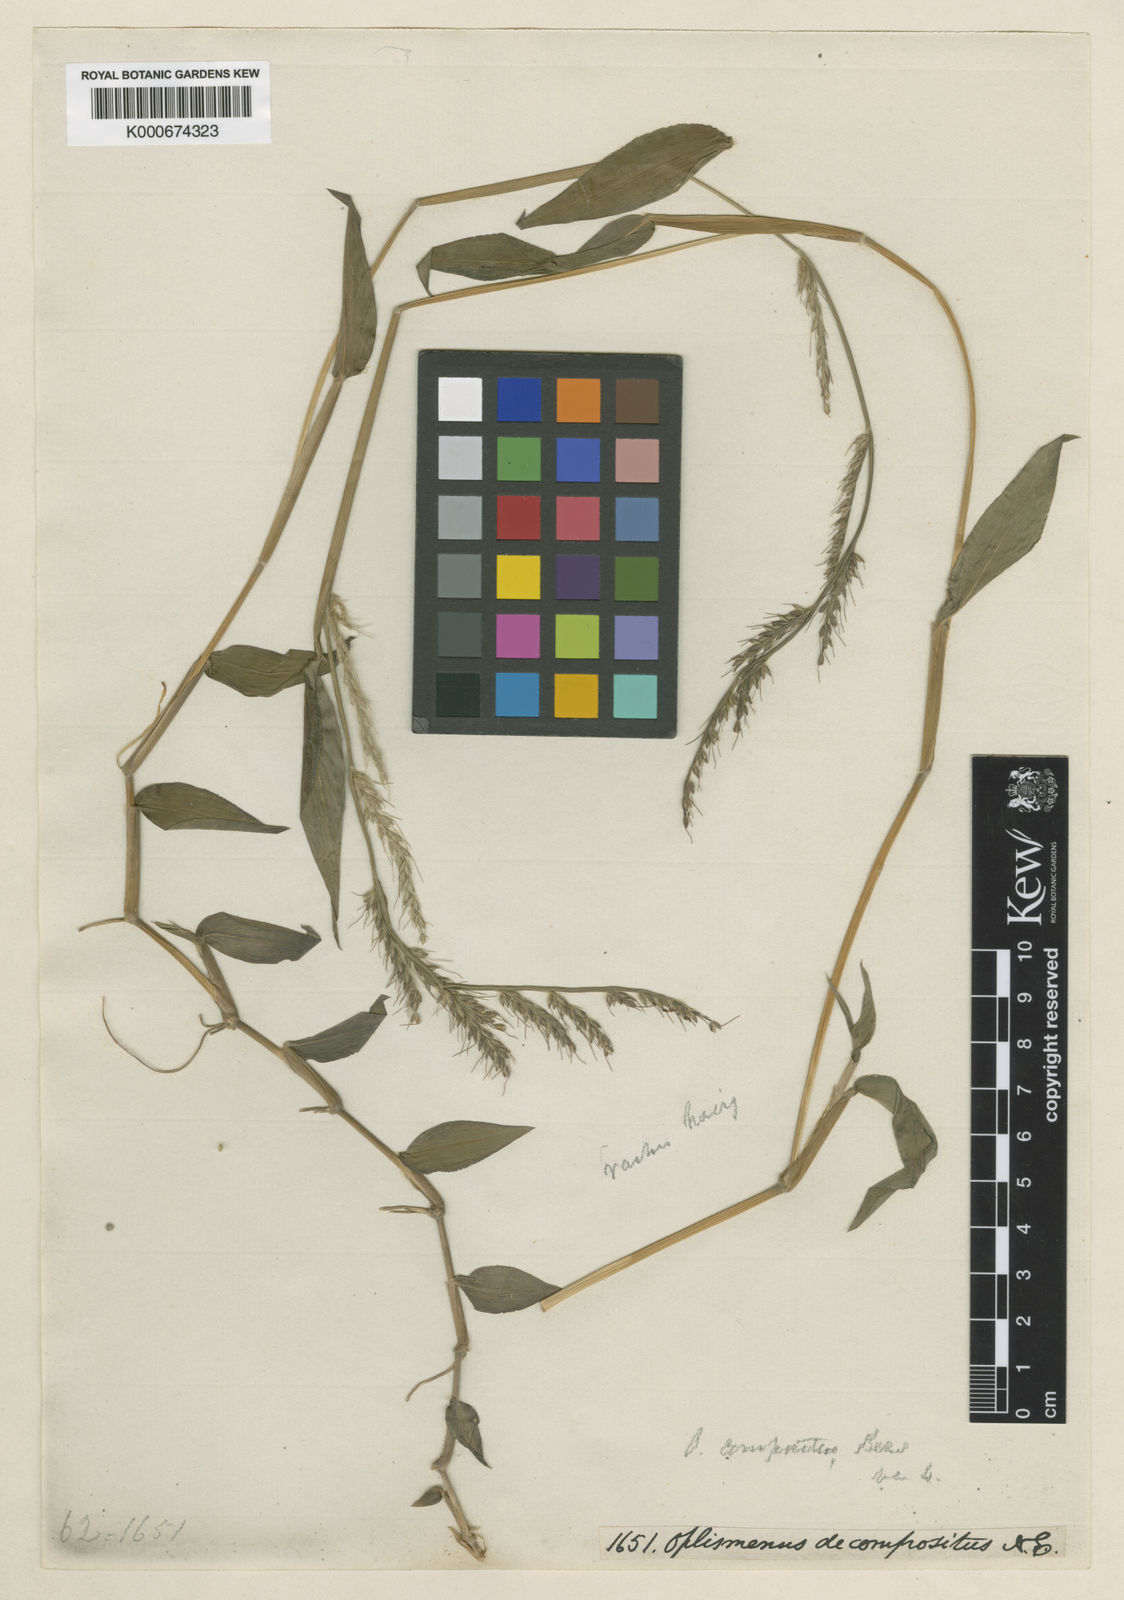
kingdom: Plantae
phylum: Tracheophyta
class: Liliopsida
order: Poales
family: Poaceae
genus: Oplismenus
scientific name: Oplismenus compositus
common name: Running mountain grass
